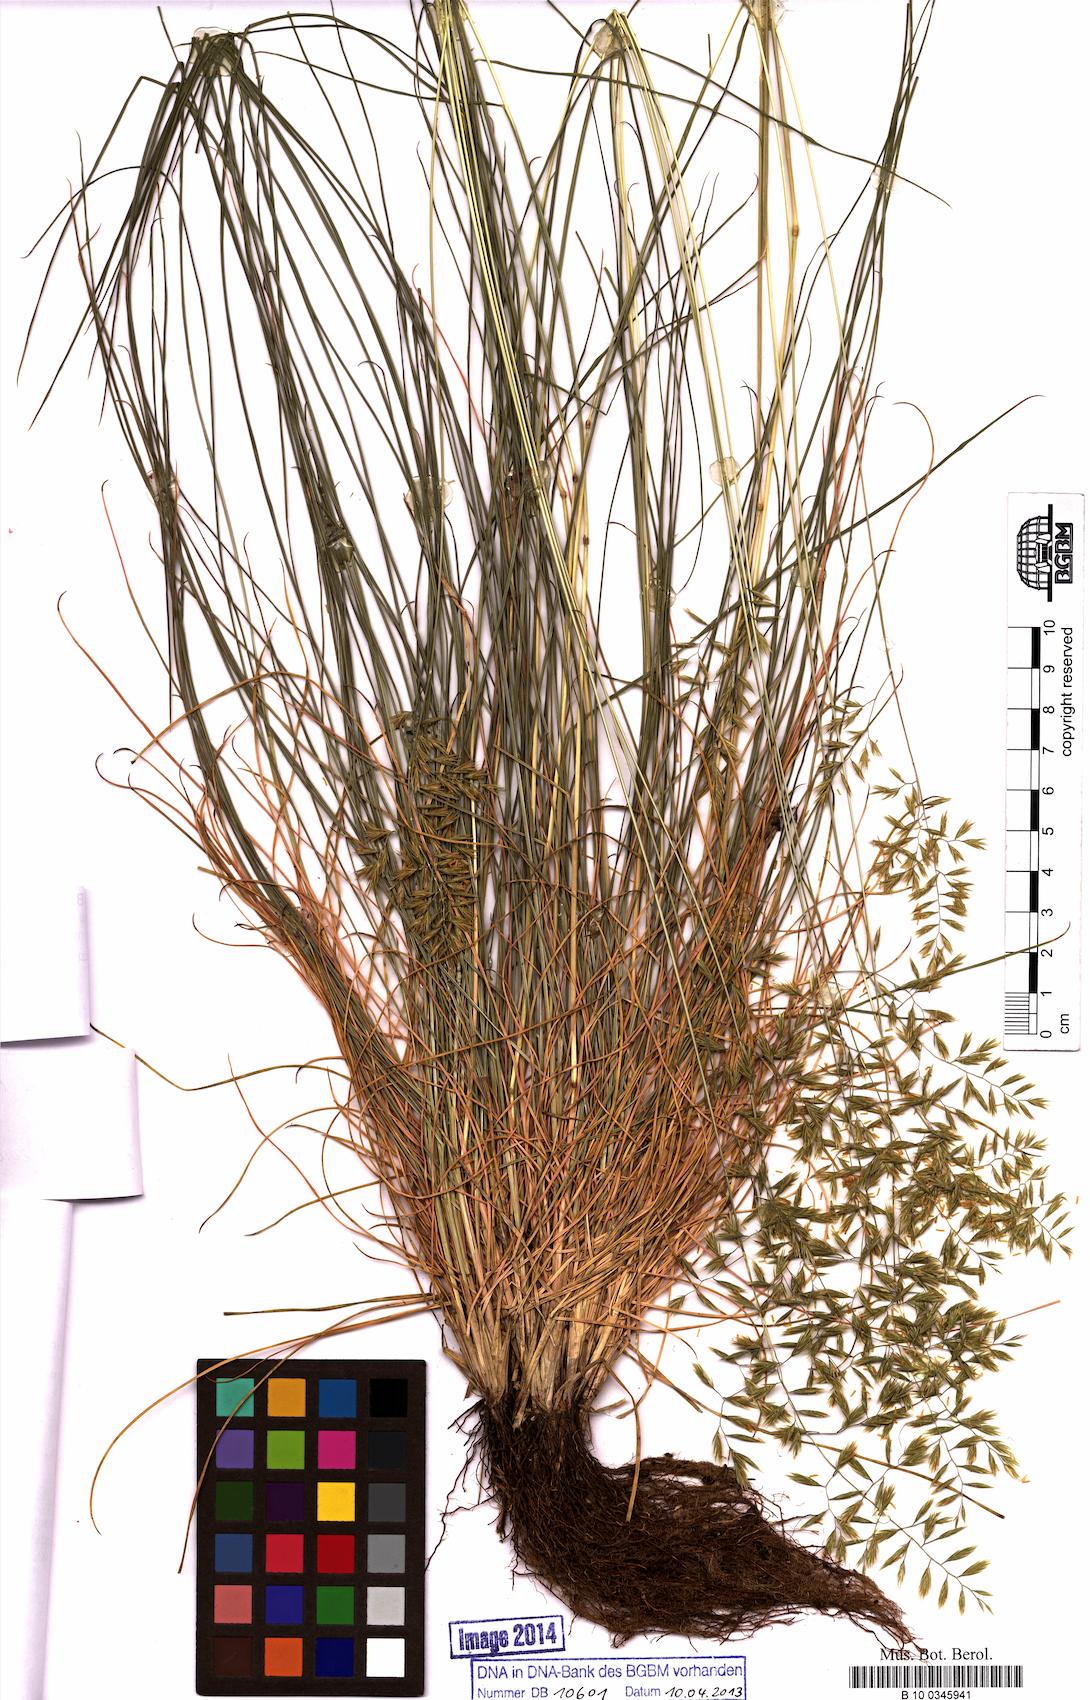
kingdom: Plantae
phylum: Tracheophyta
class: Liliopsida
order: Poales
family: Poaceae
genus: Festuca
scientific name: Festuca patzkei
